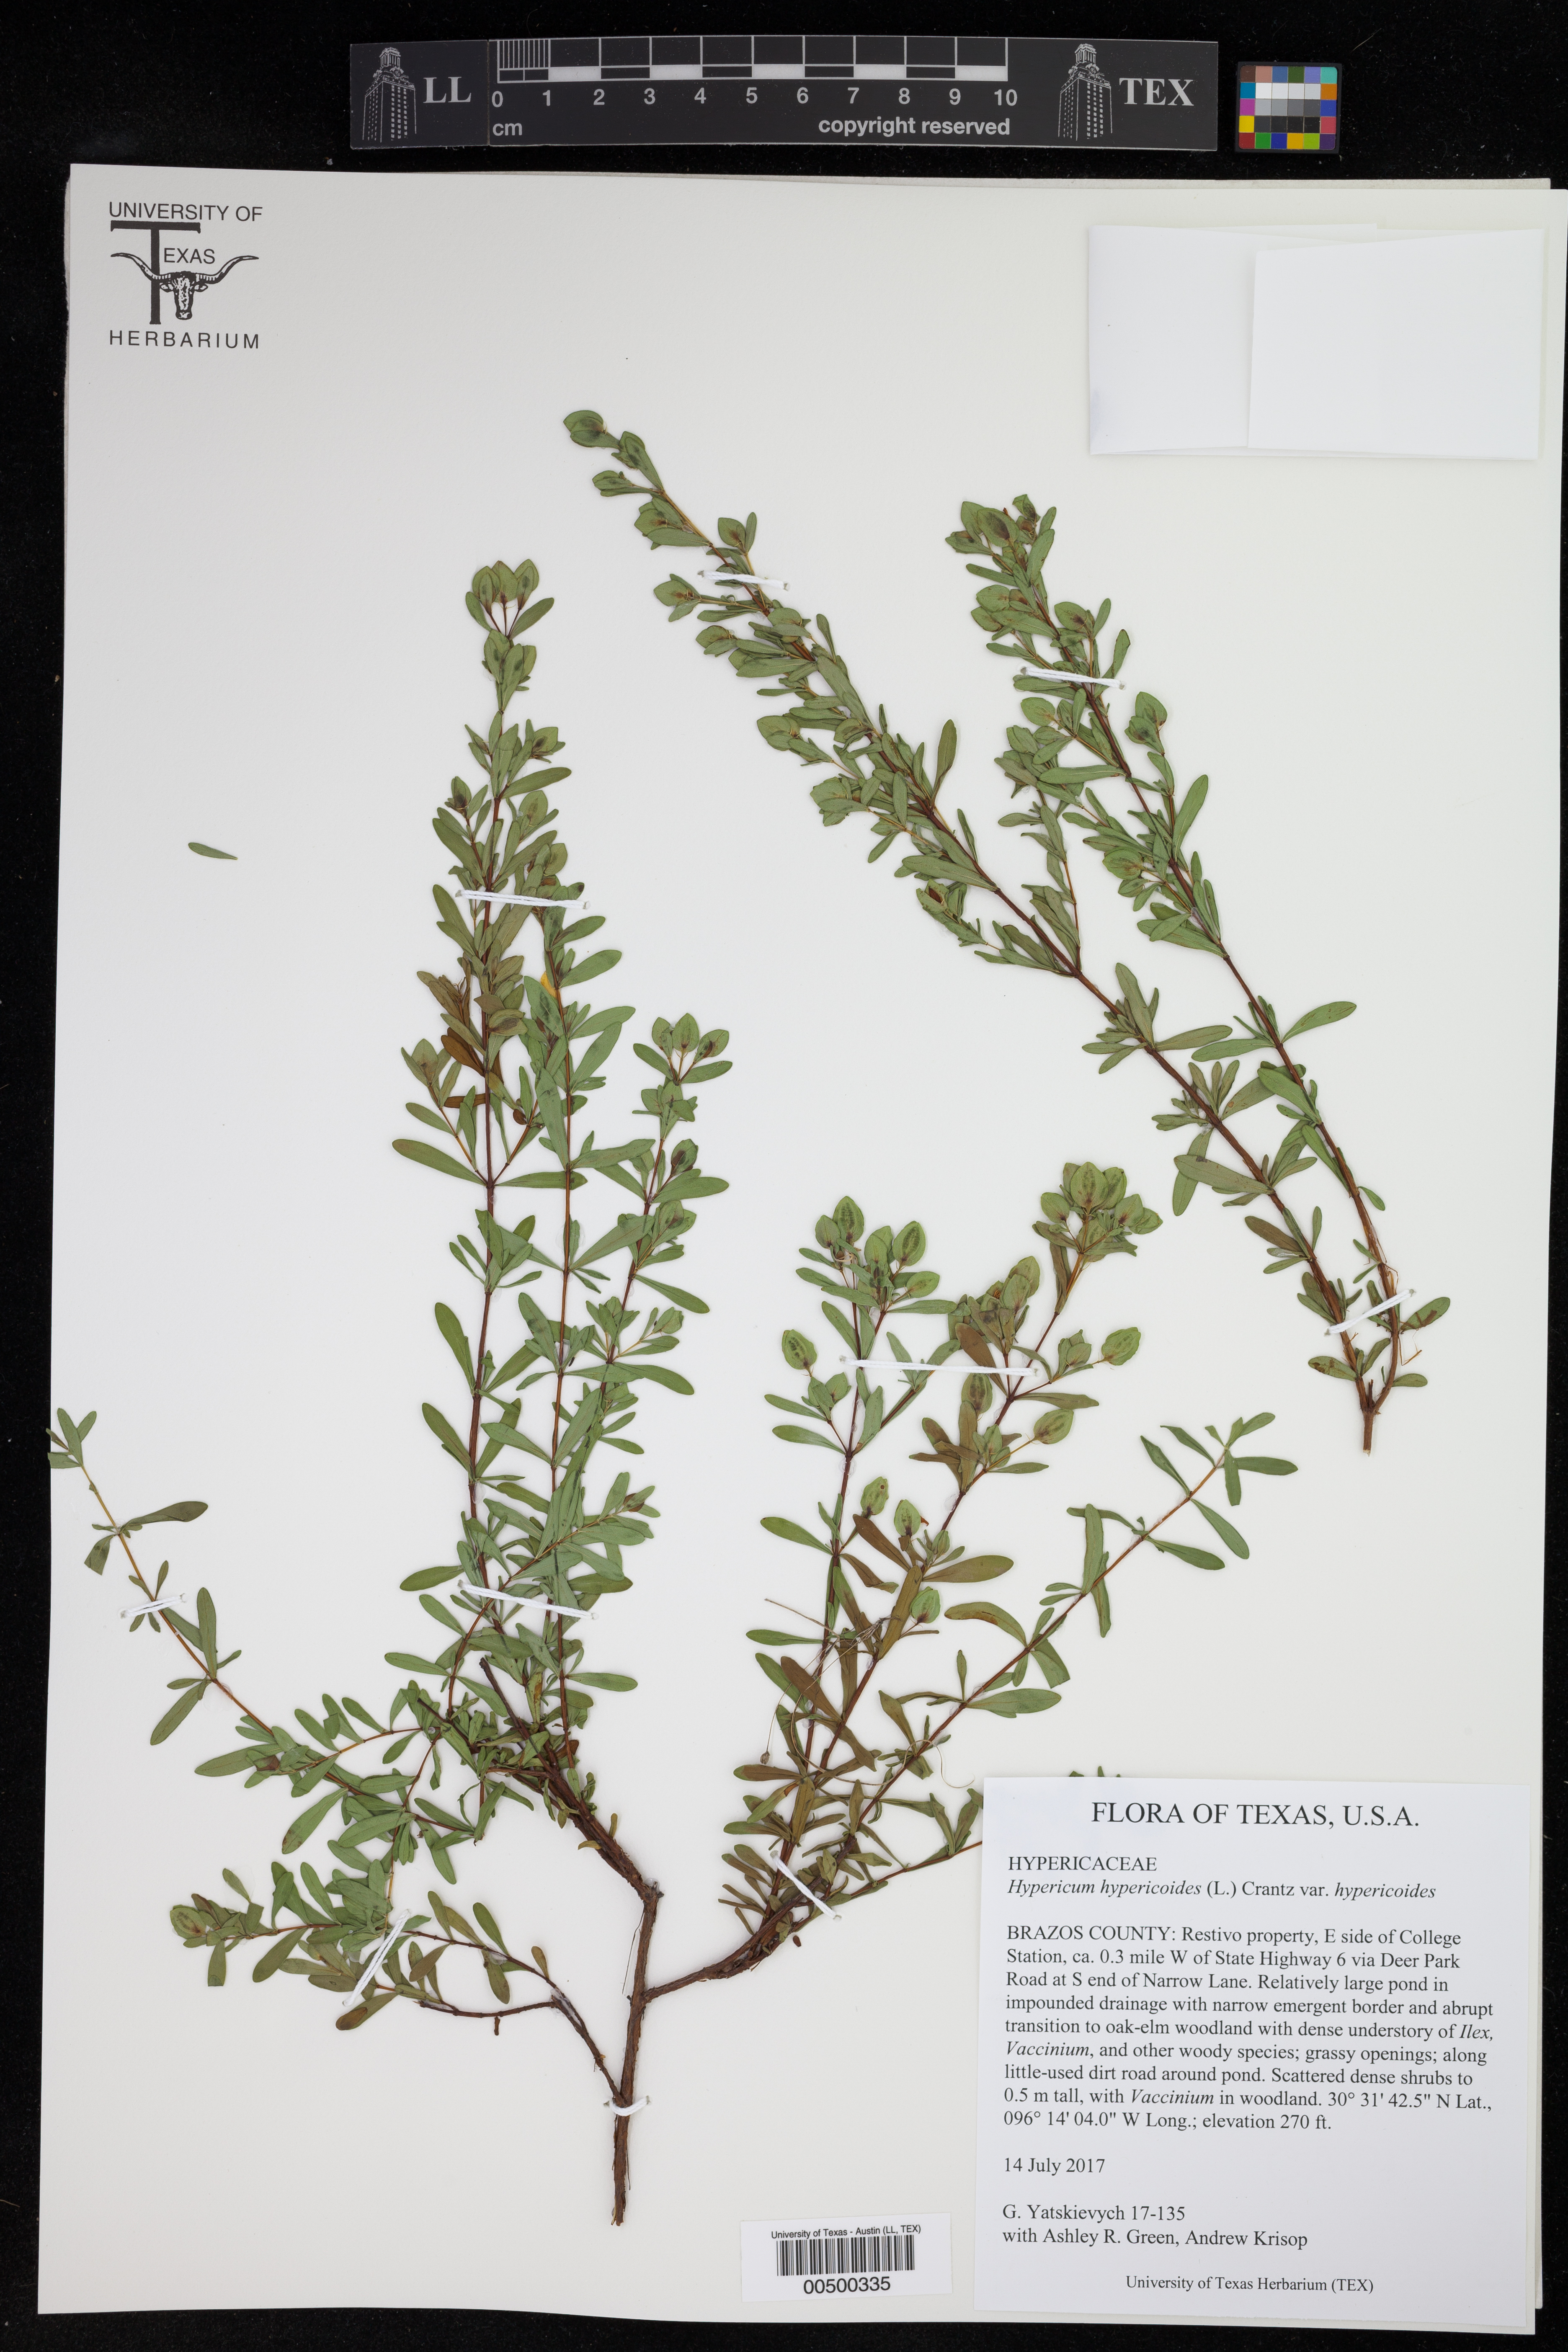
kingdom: Plantae
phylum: Tracheophyta
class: Magnoliopsida
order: Malpighiales
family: Hypericaceae
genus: Hypericum
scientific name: Hypericum hypericoides
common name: St. andrew's cross
